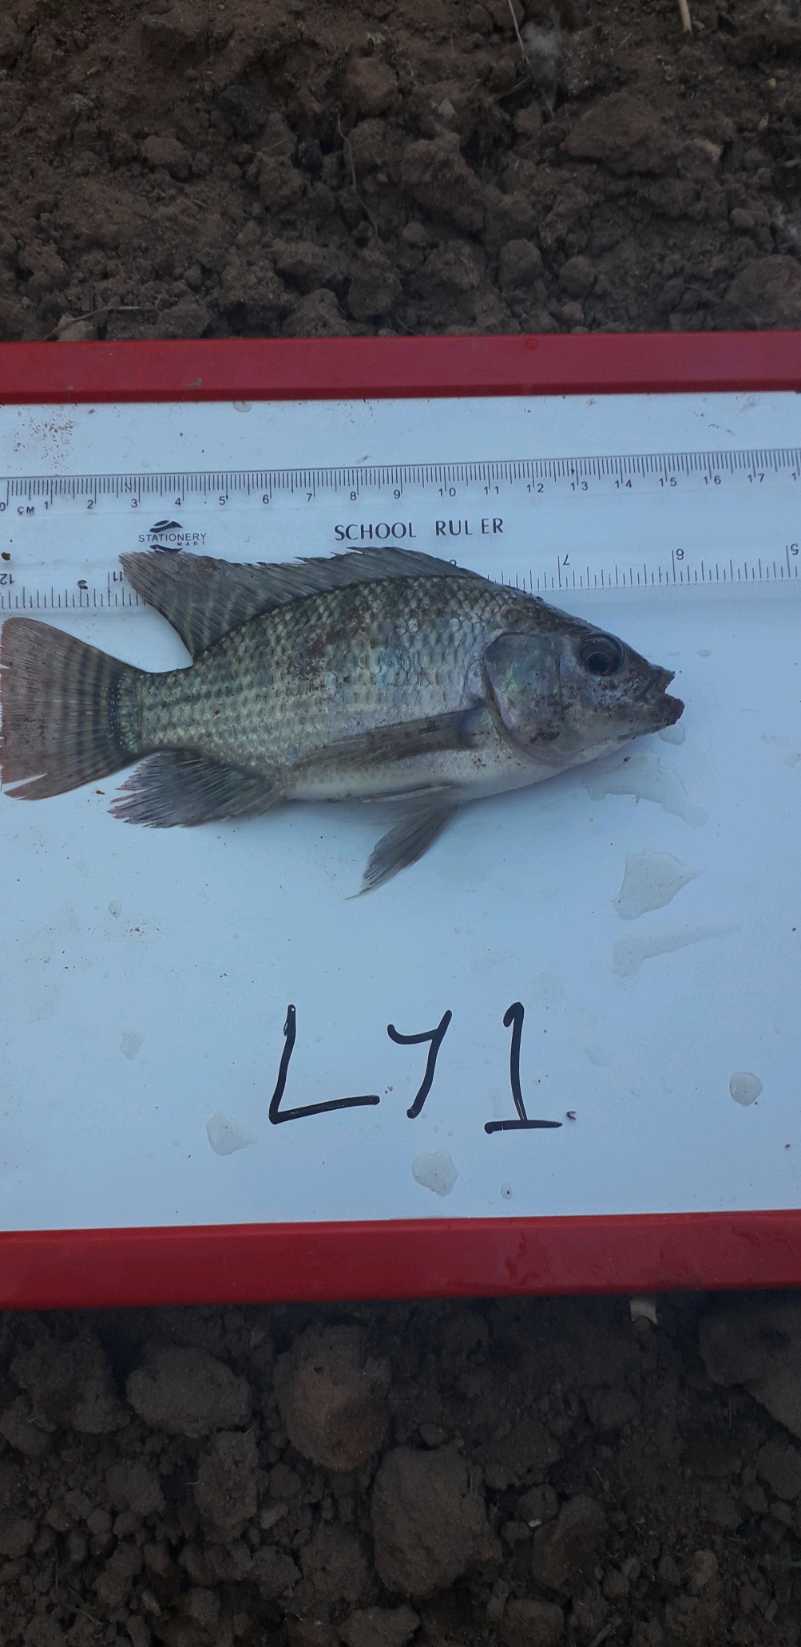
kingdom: Animalia
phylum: Chordata
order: Perciformes
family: Cichlidae
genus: Oreochromis
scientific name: Oreochromis niloticus
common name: Nile tilapia
